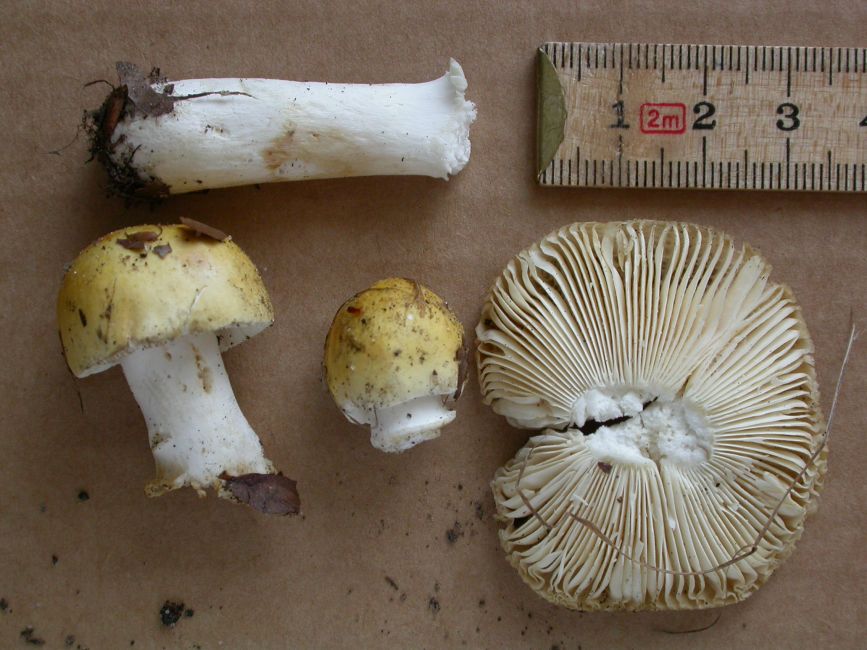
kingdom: Fungi
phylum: Basidiomycota
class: Agaricomycetes
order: Russulales
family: Russulaceae
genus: Russula
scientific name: Russula solaris
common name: sol-skørhat
